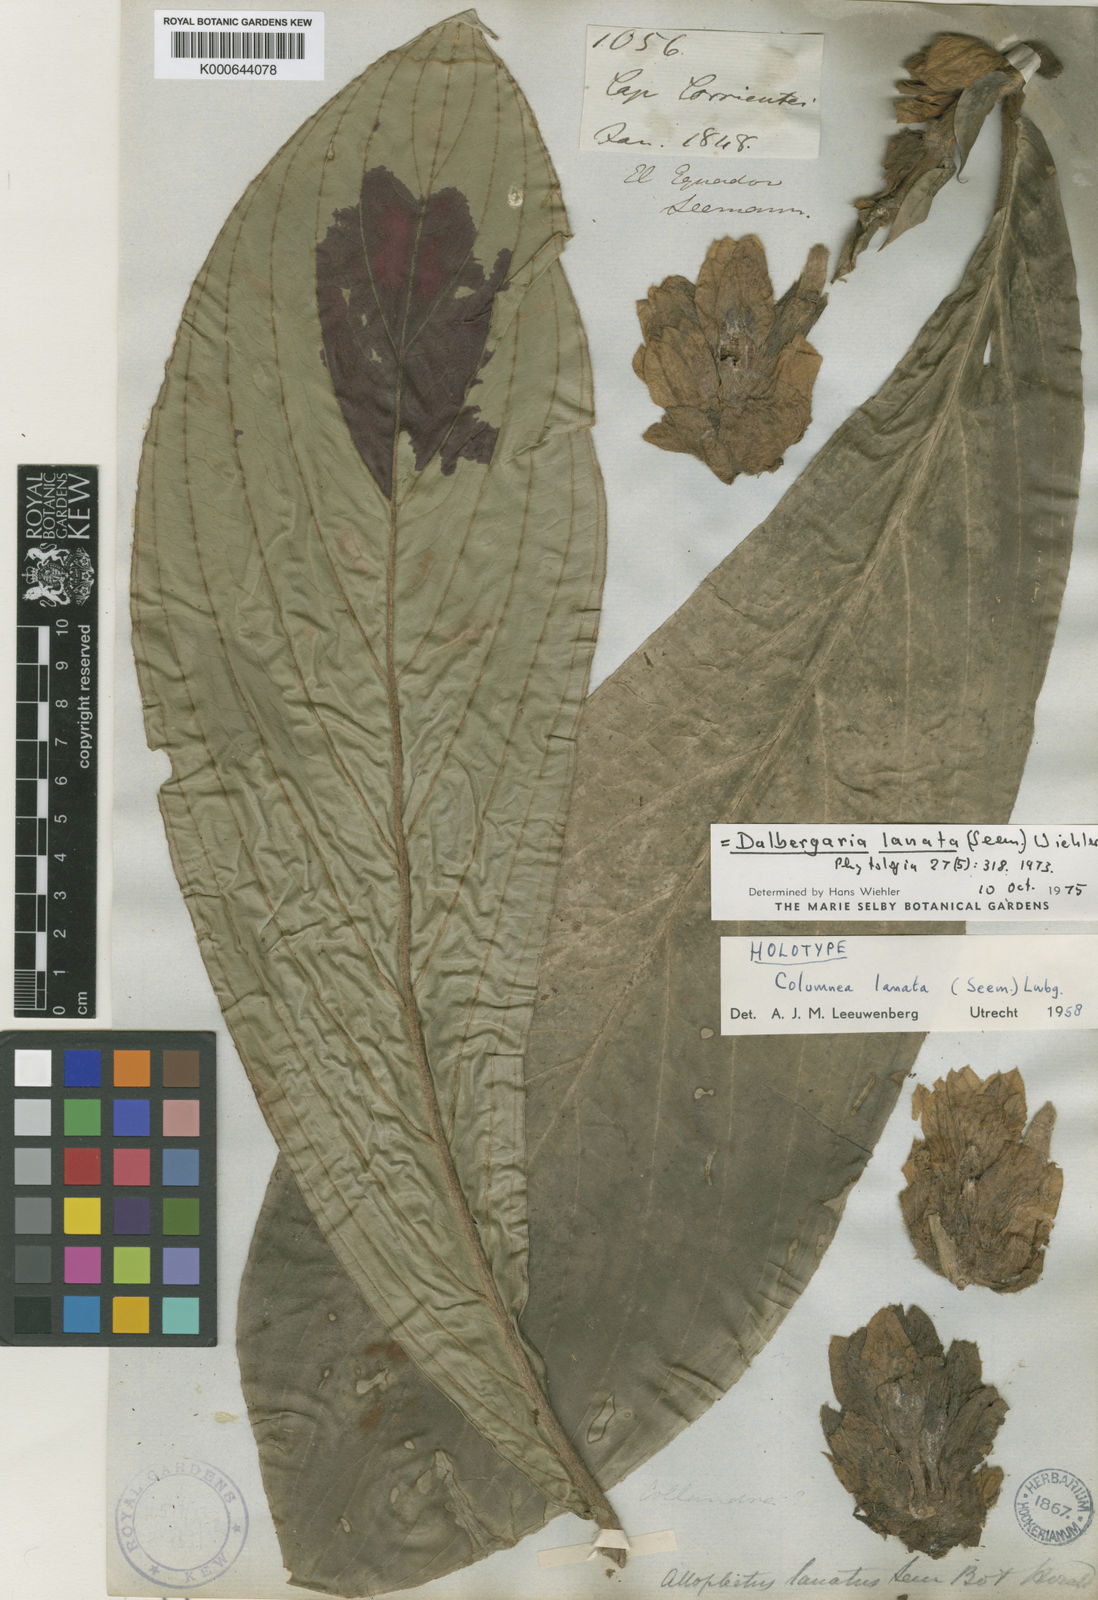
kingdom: Plantae
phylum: Tracheophyta
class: Magnoliopsida
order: Lamiales
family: Gesneriaceae
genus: Columnea
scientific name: Columnea
